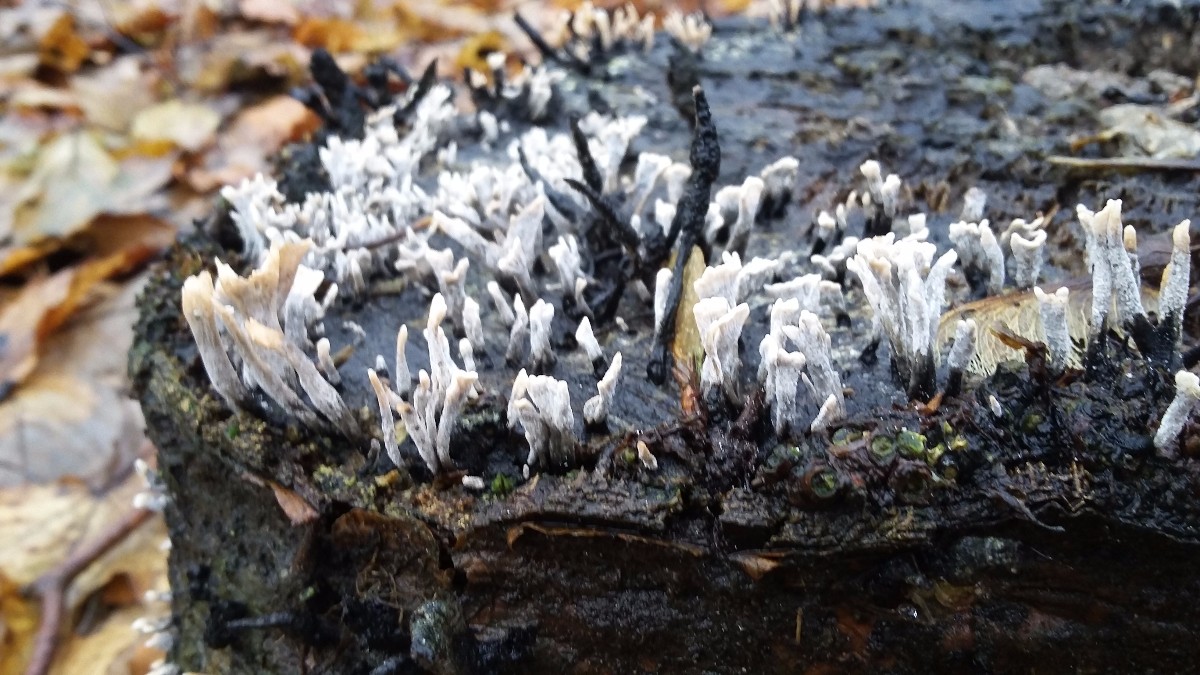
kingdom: Fungi
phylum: Ascomycota
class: Sordariomycetes
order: Xylariales
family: Xylariaceae
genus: Xylaria
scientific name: Xylaria hypoxylon
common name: grenet stødsvamp
